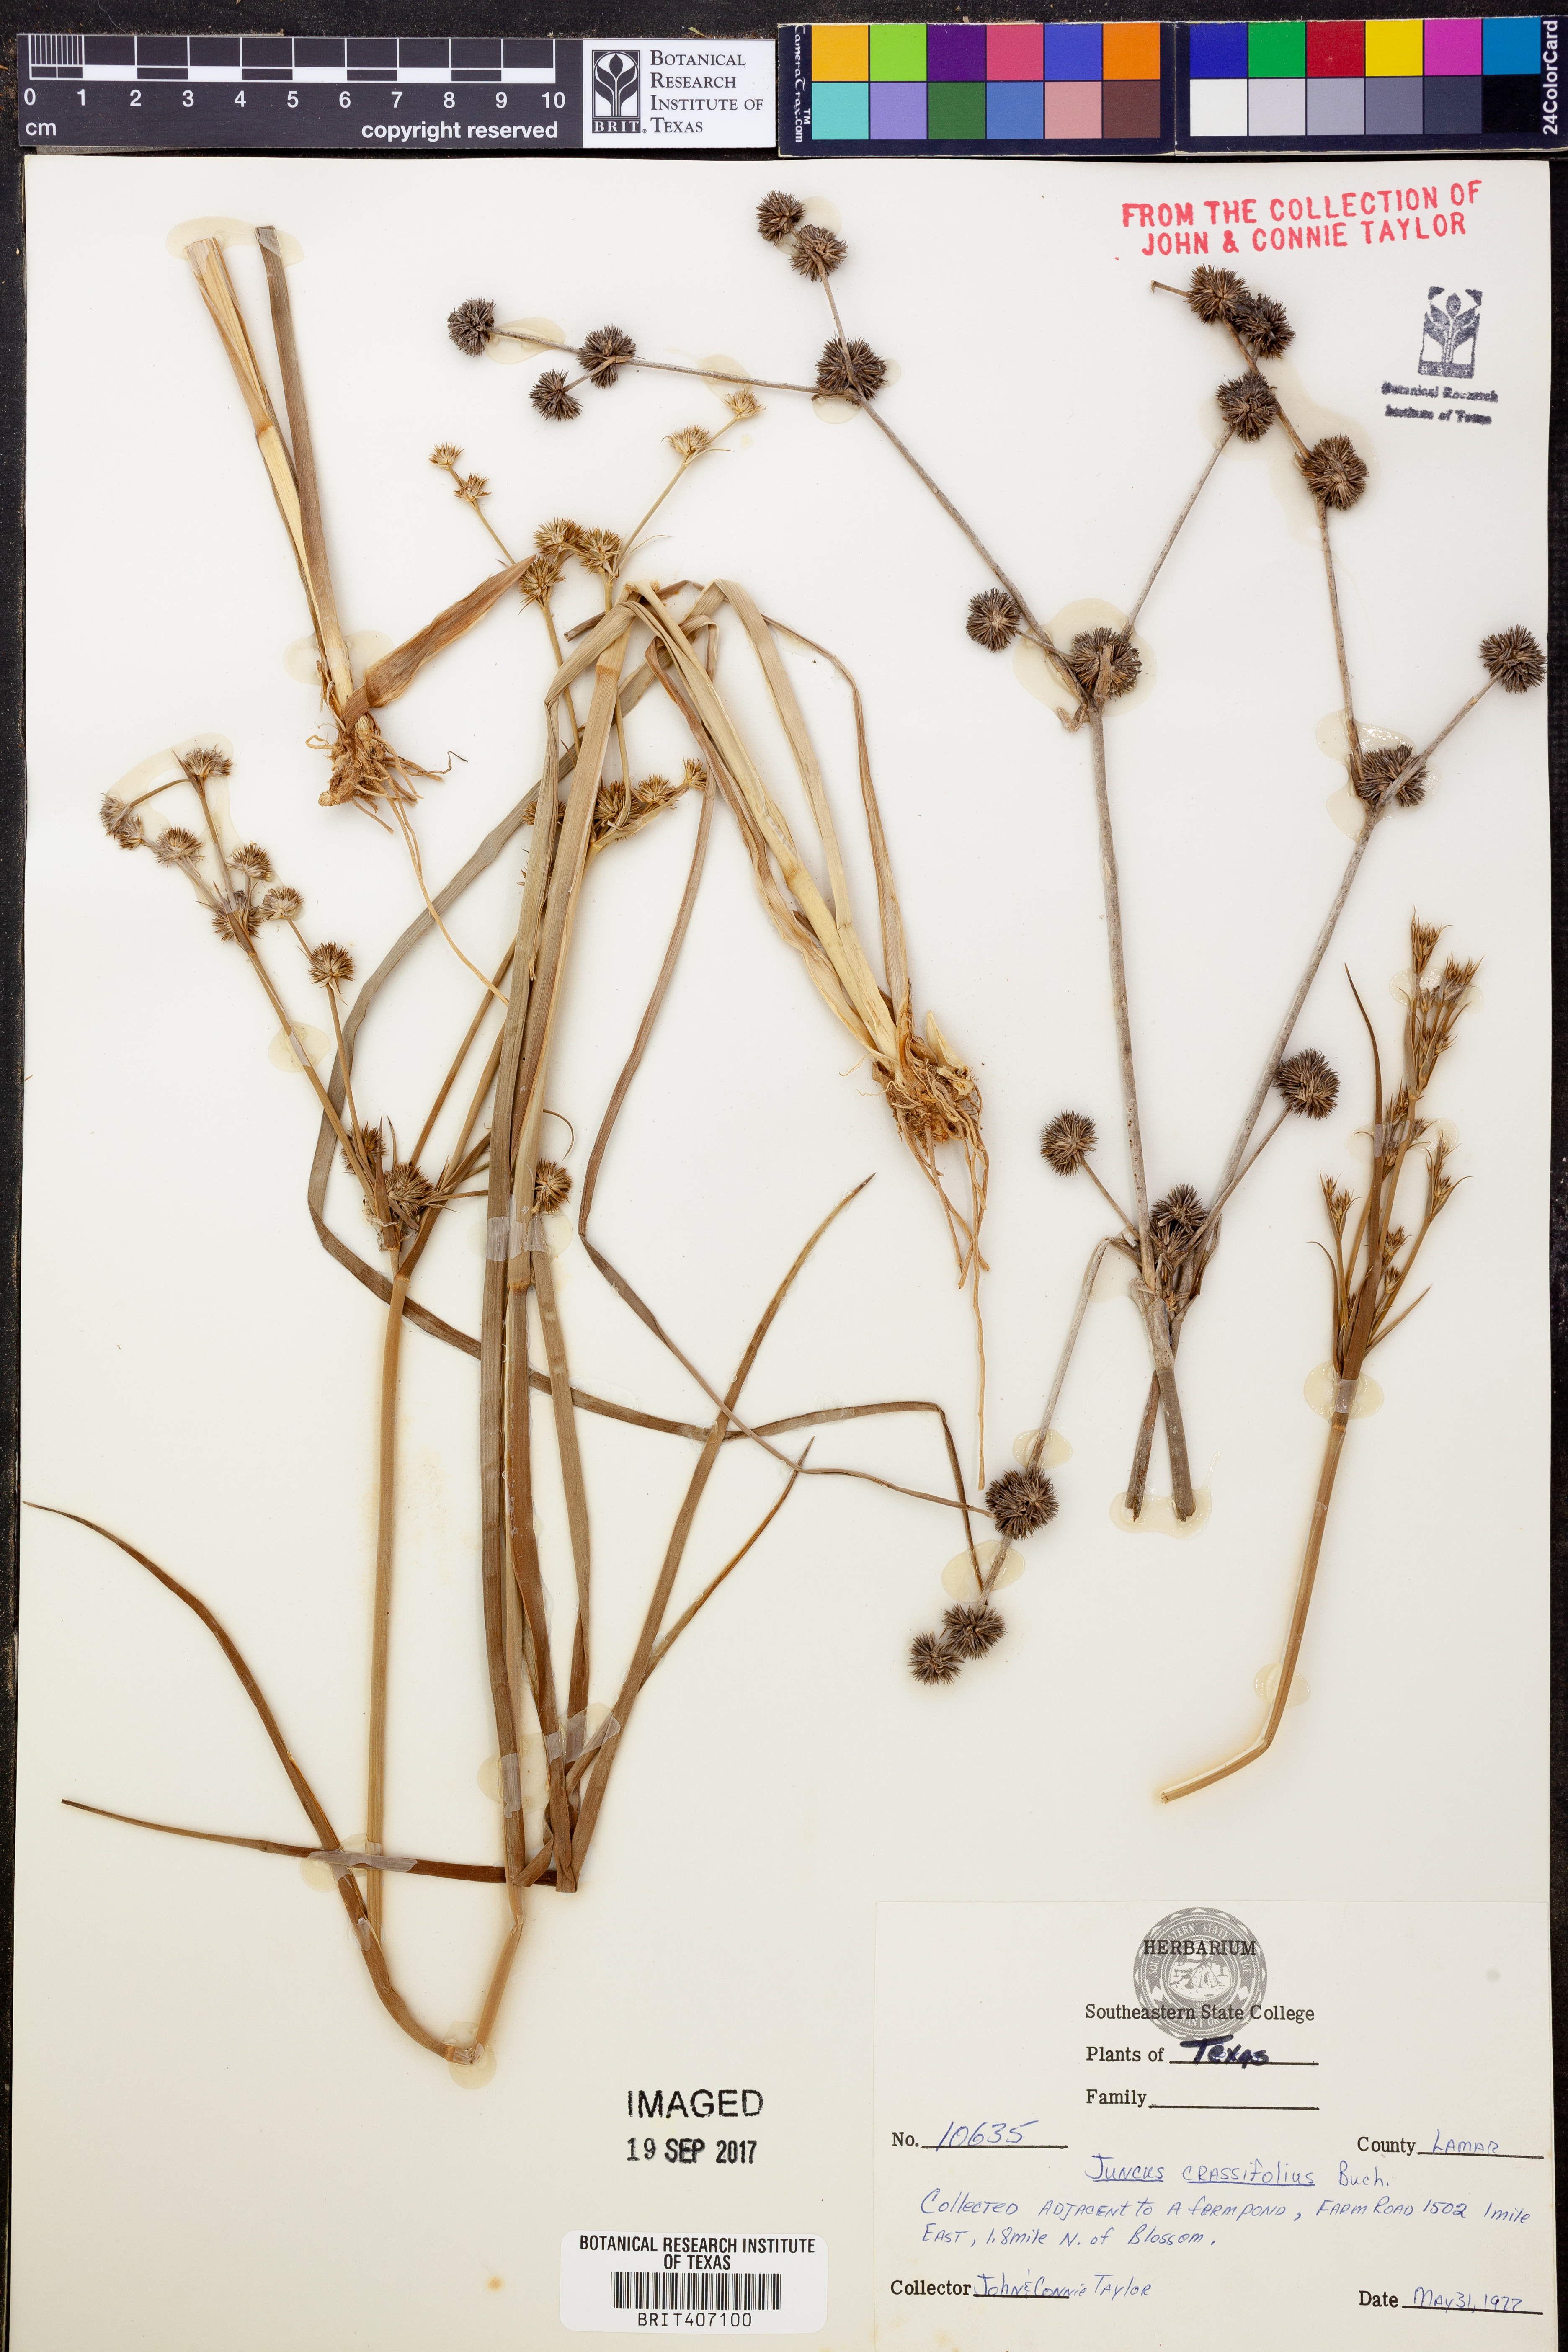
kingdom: Plantae
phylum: Tracheophyta
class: Liliopsida
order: Poales
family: Juncaceae
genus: Juncus
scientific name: Juncus validus
